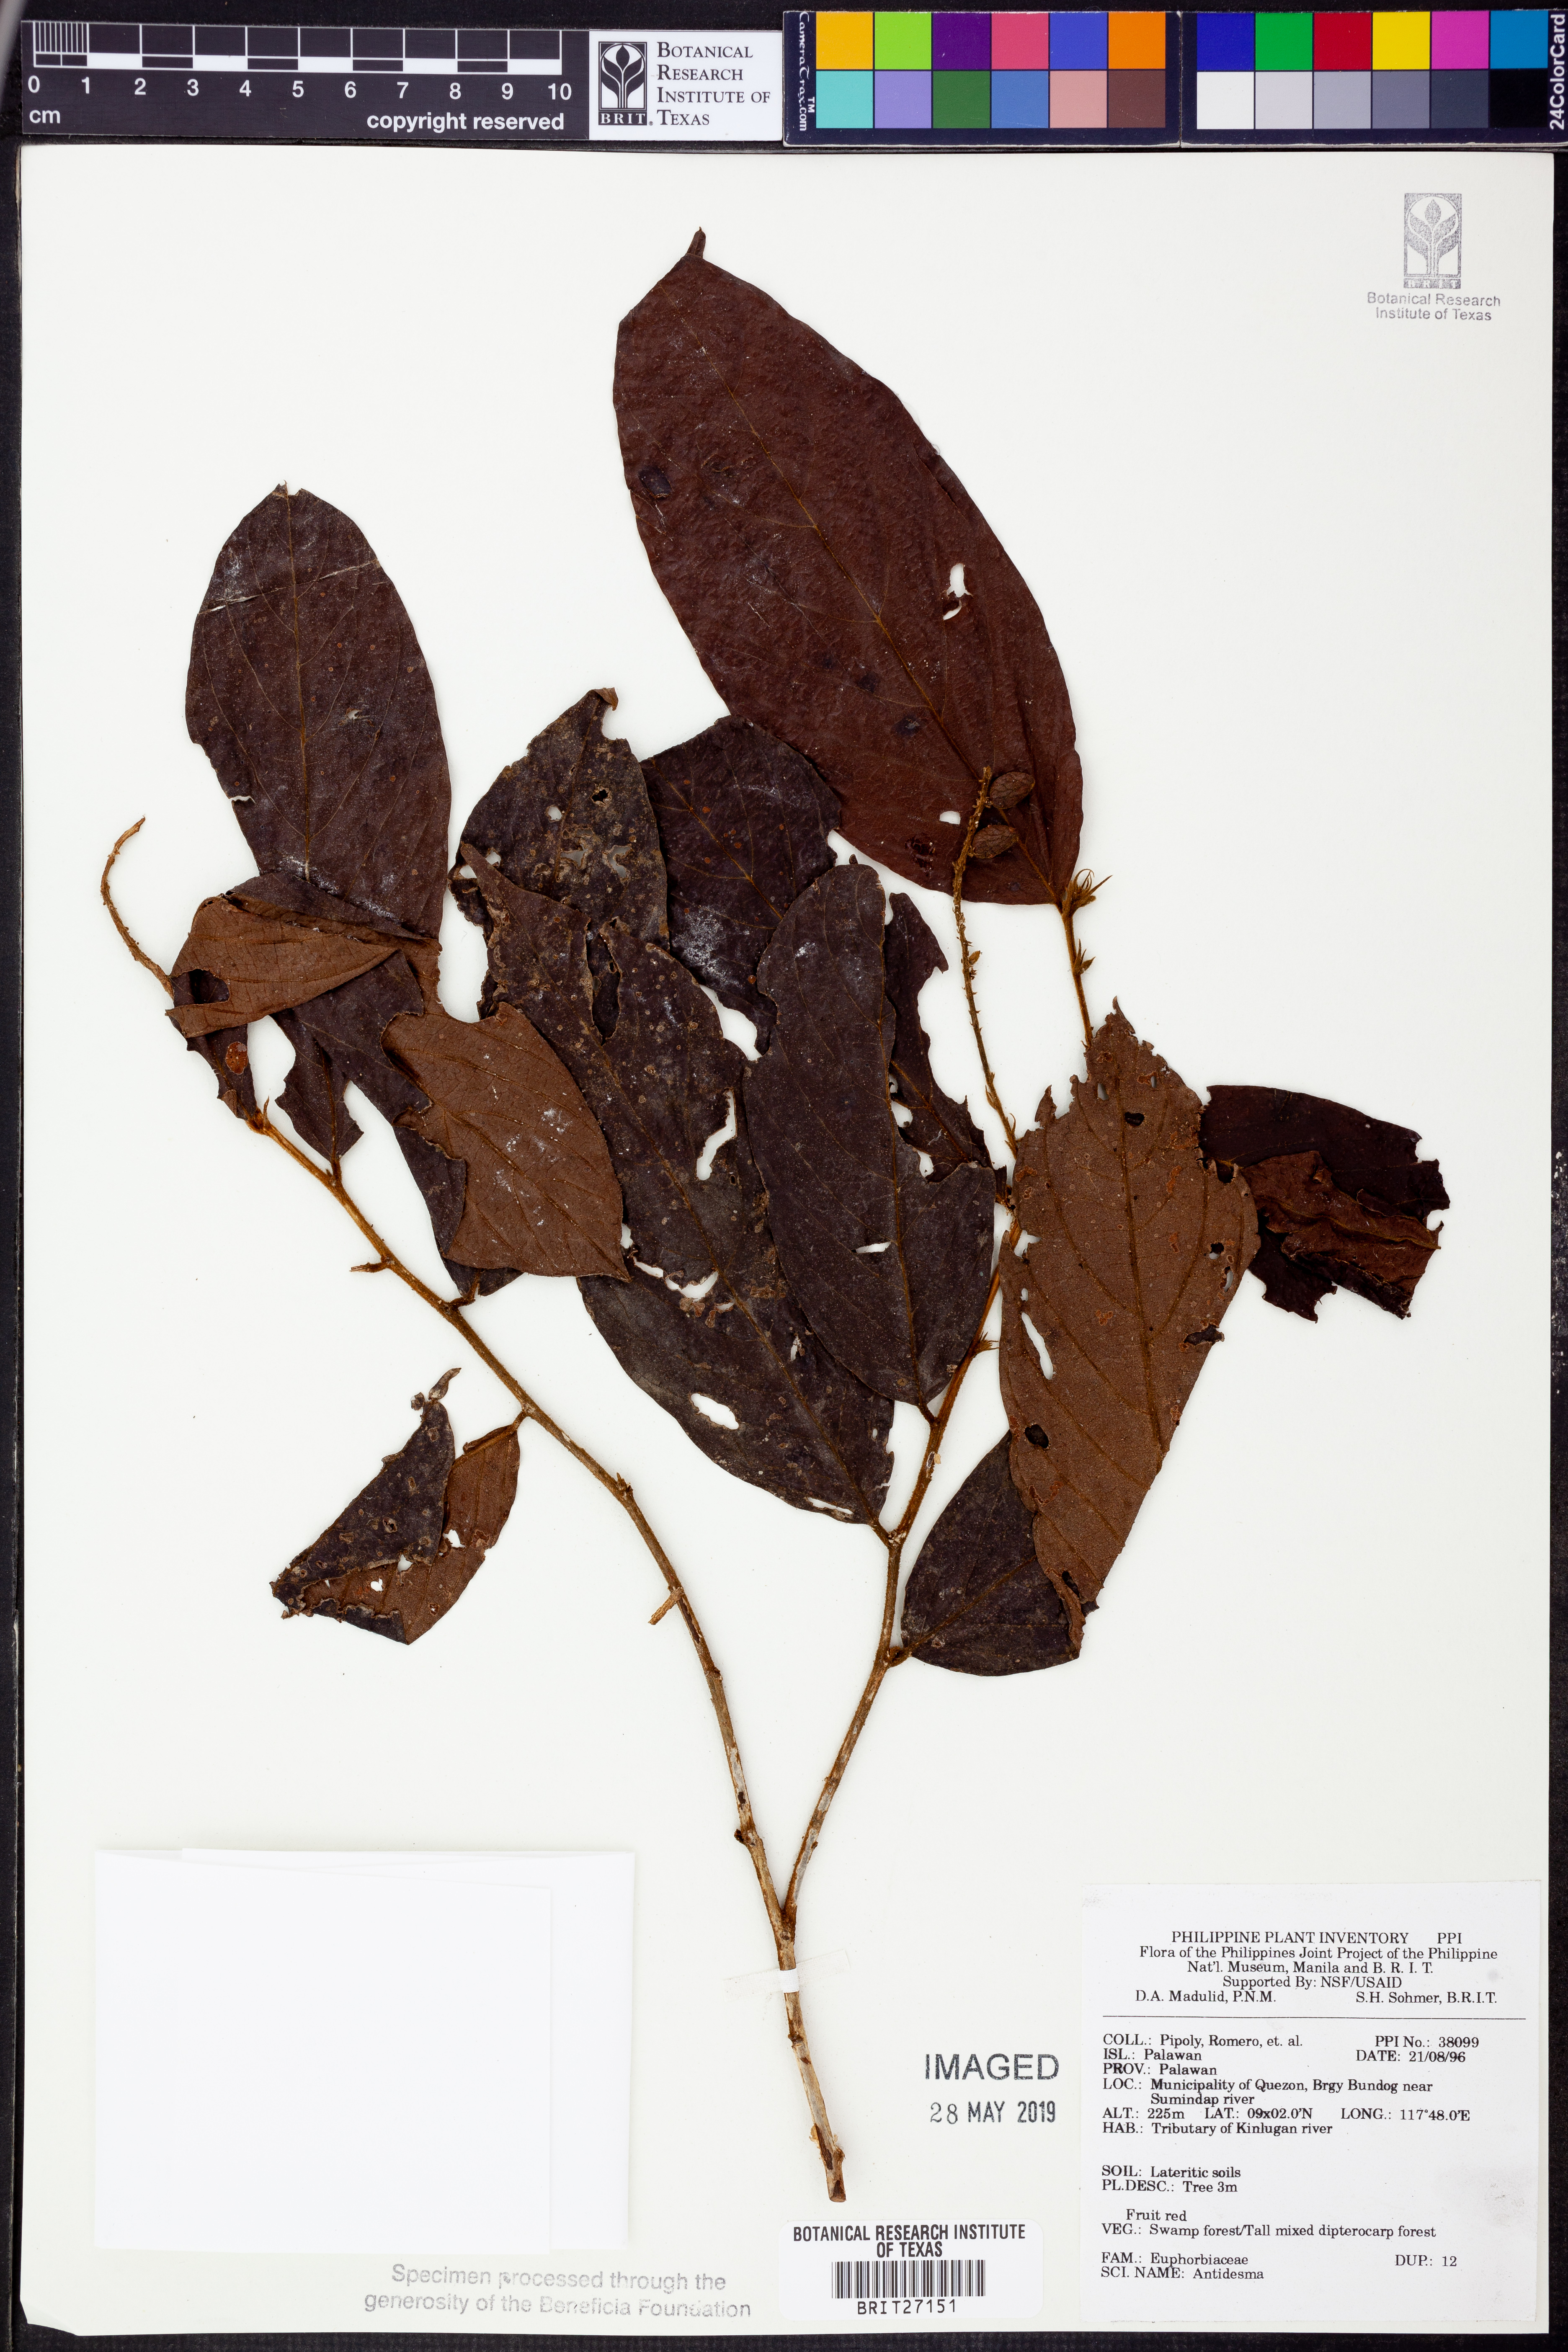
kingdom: Plantae
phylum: Tracheophyta
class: Magnoliopsida
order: Malpighiales
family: Phyllanthaceae
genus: Antidesma
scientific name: Antidesma
